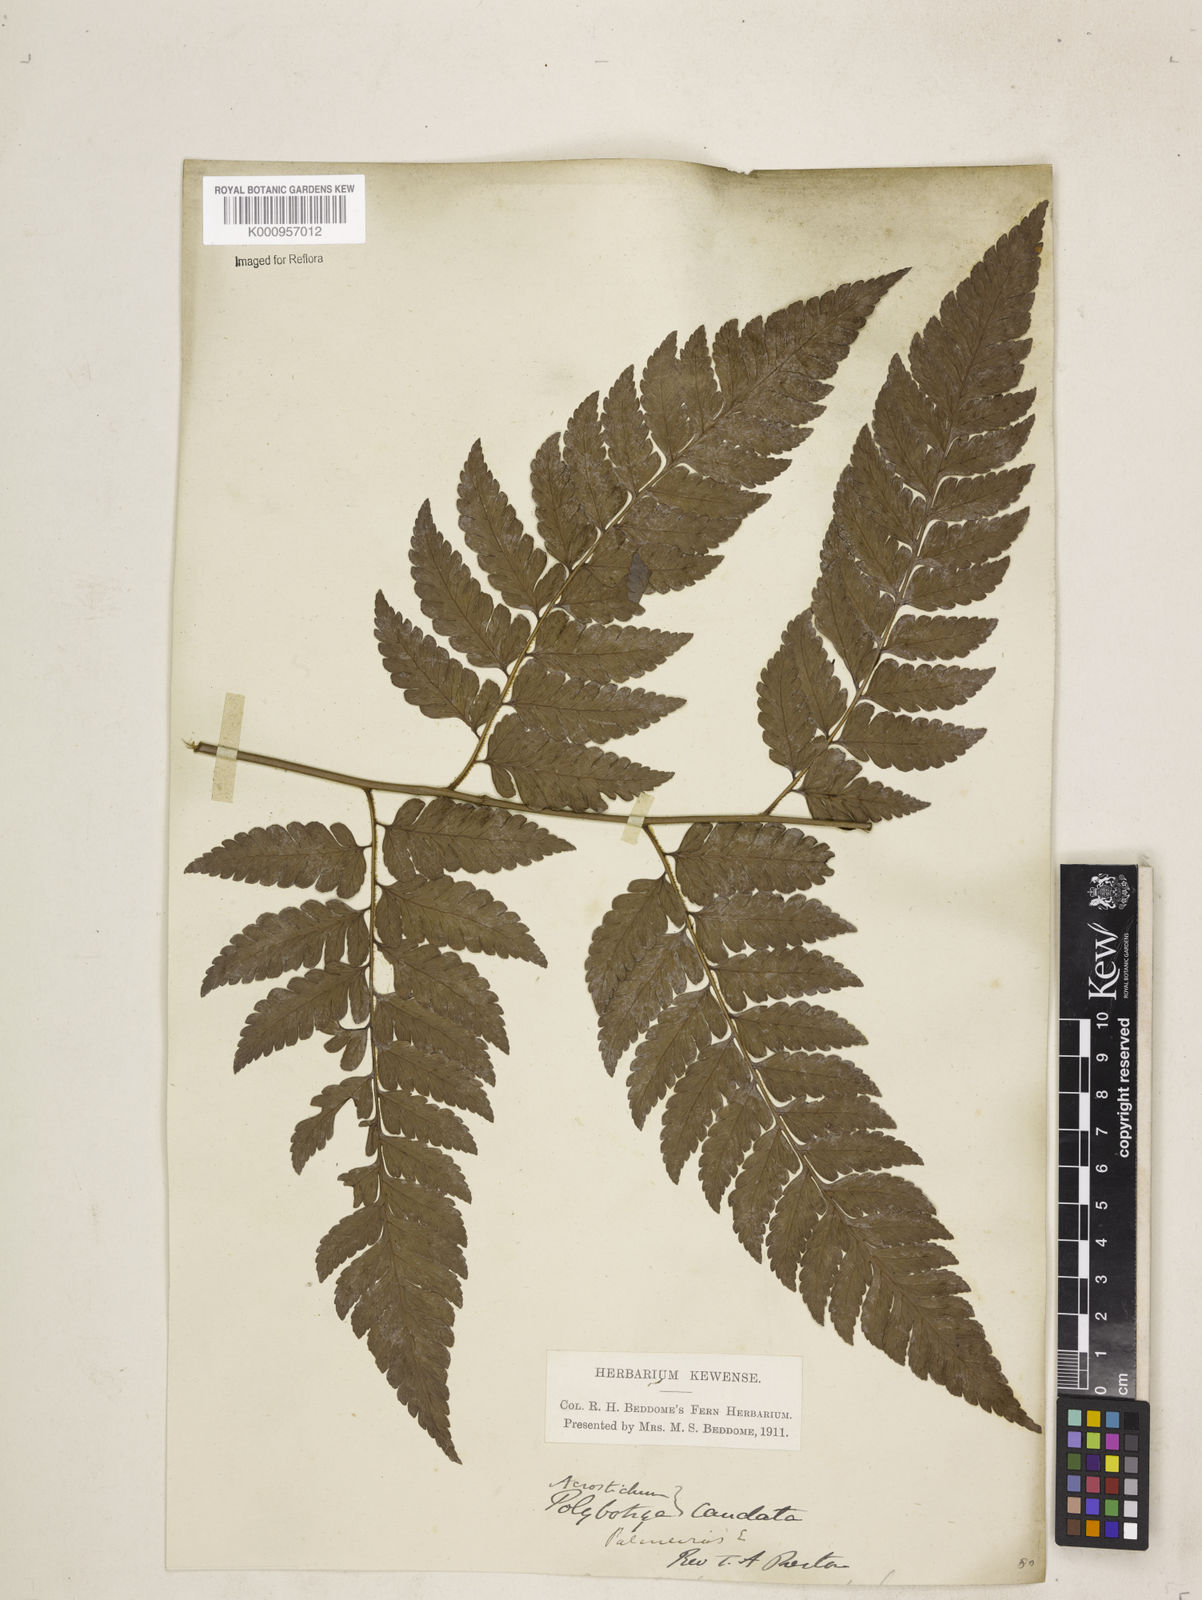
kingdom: Plantae
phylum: Tracheophyta
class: Polypodiopsida
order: Polypodiales
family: Dryopteridaceae
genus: Polybotrya
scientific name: Polybotrya caudata
